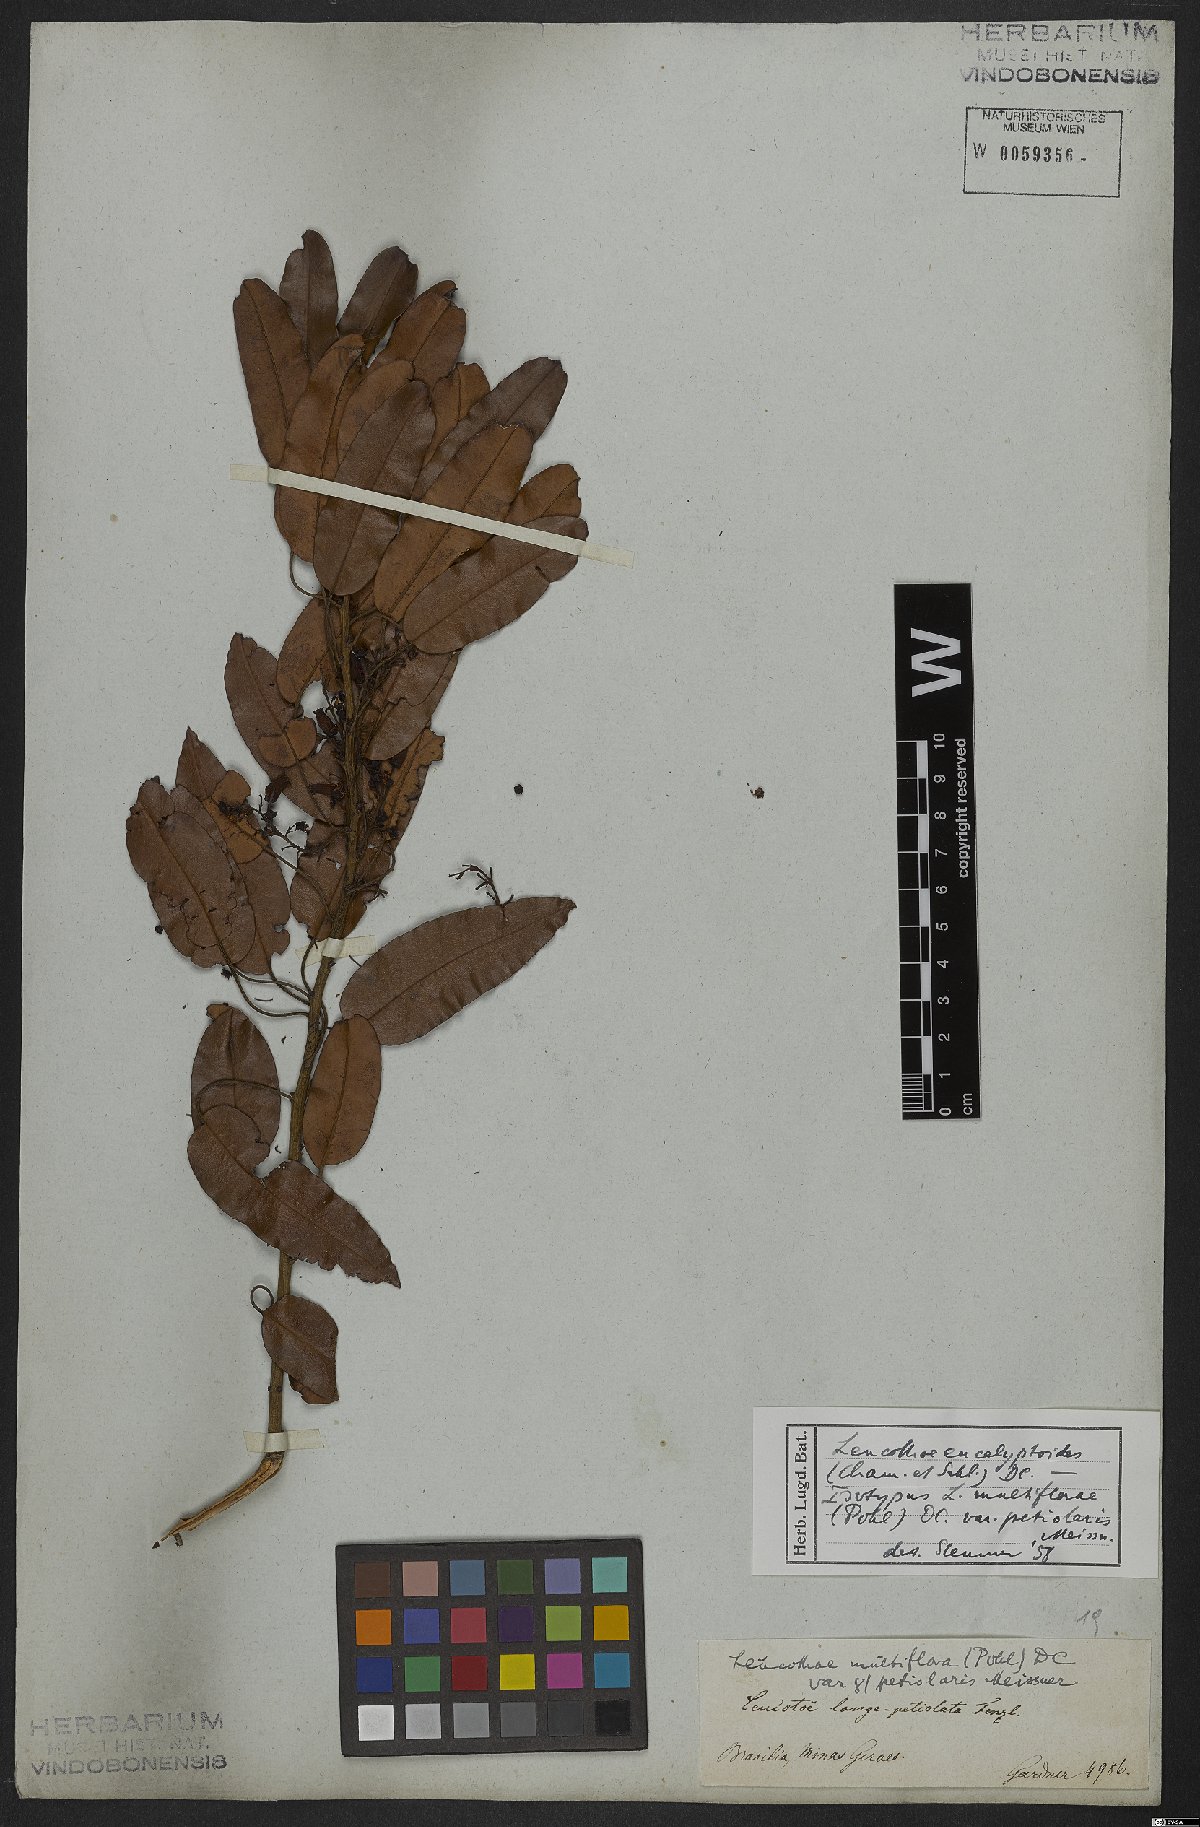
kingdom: Plantae
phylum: Tracheophyta
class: Magnoliopsida
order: Ericales
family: Ericaceae
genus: Agarista
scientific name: Agarista eucalyptoides
